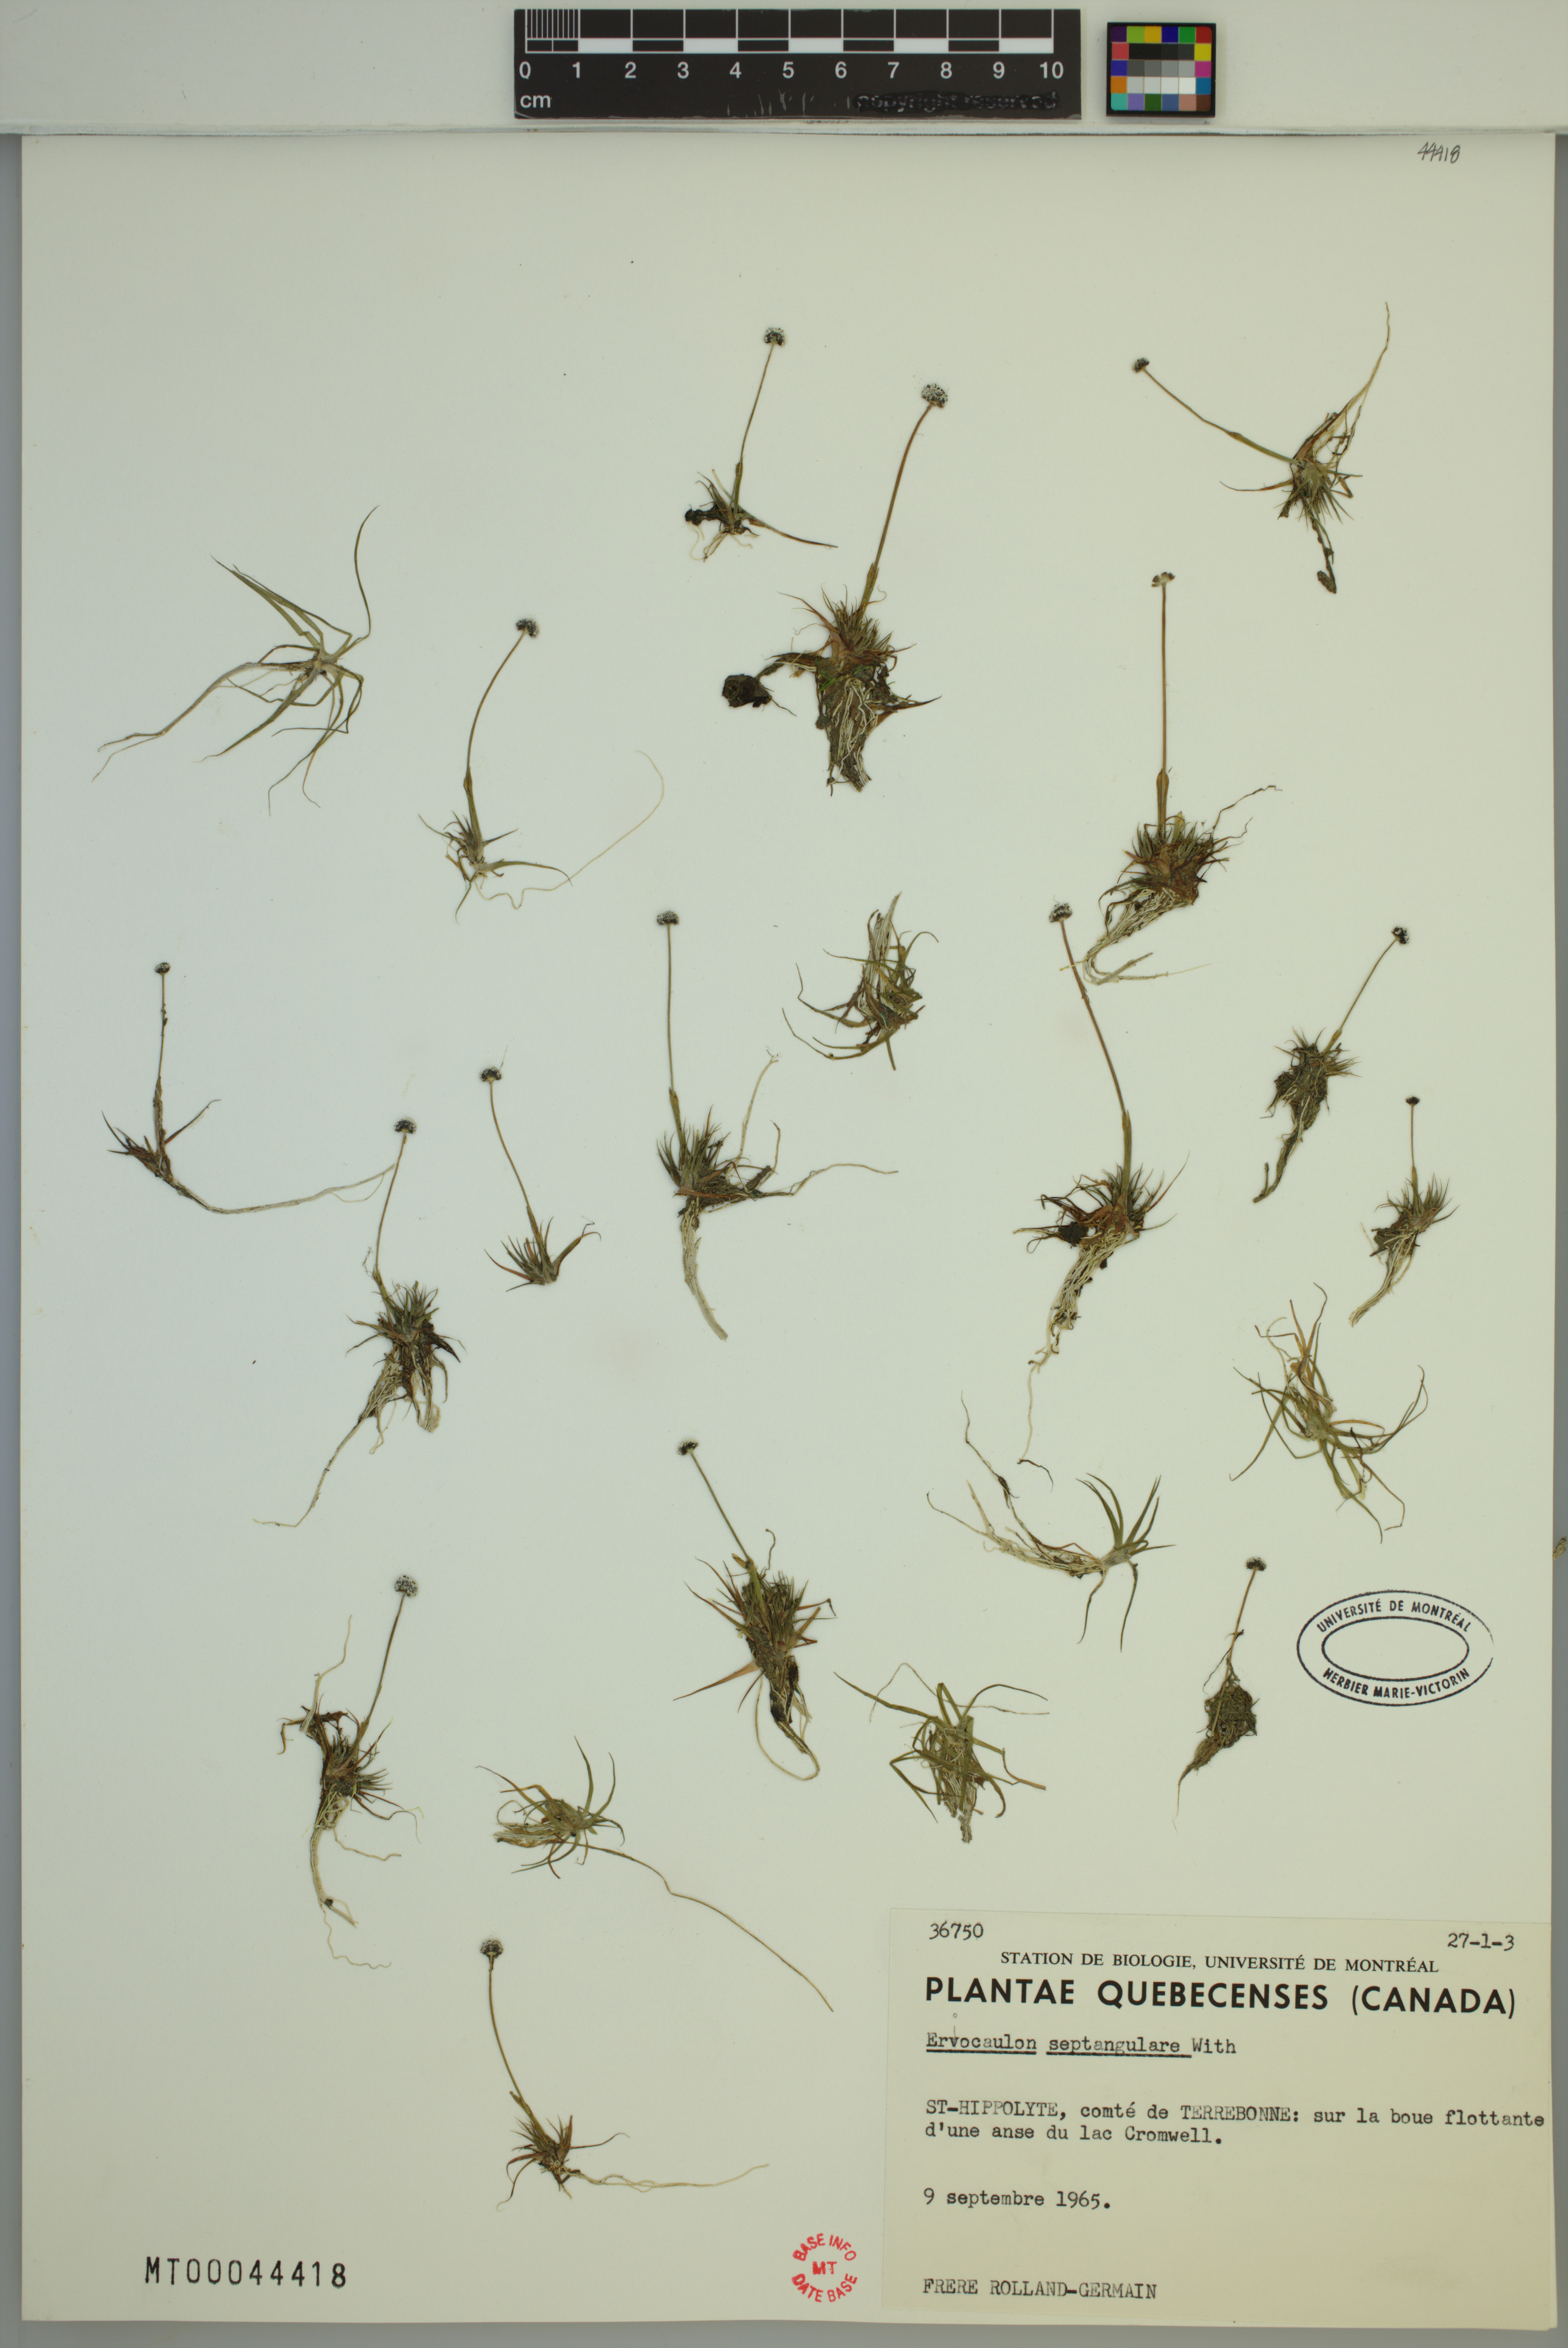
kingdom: Plantae
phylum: Tracheophyta
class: Liliopsida
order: Poales
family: Eriocaulaceae
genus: Eriocaulon
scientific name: Eriocaulon aquaticum
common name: Pipewort
